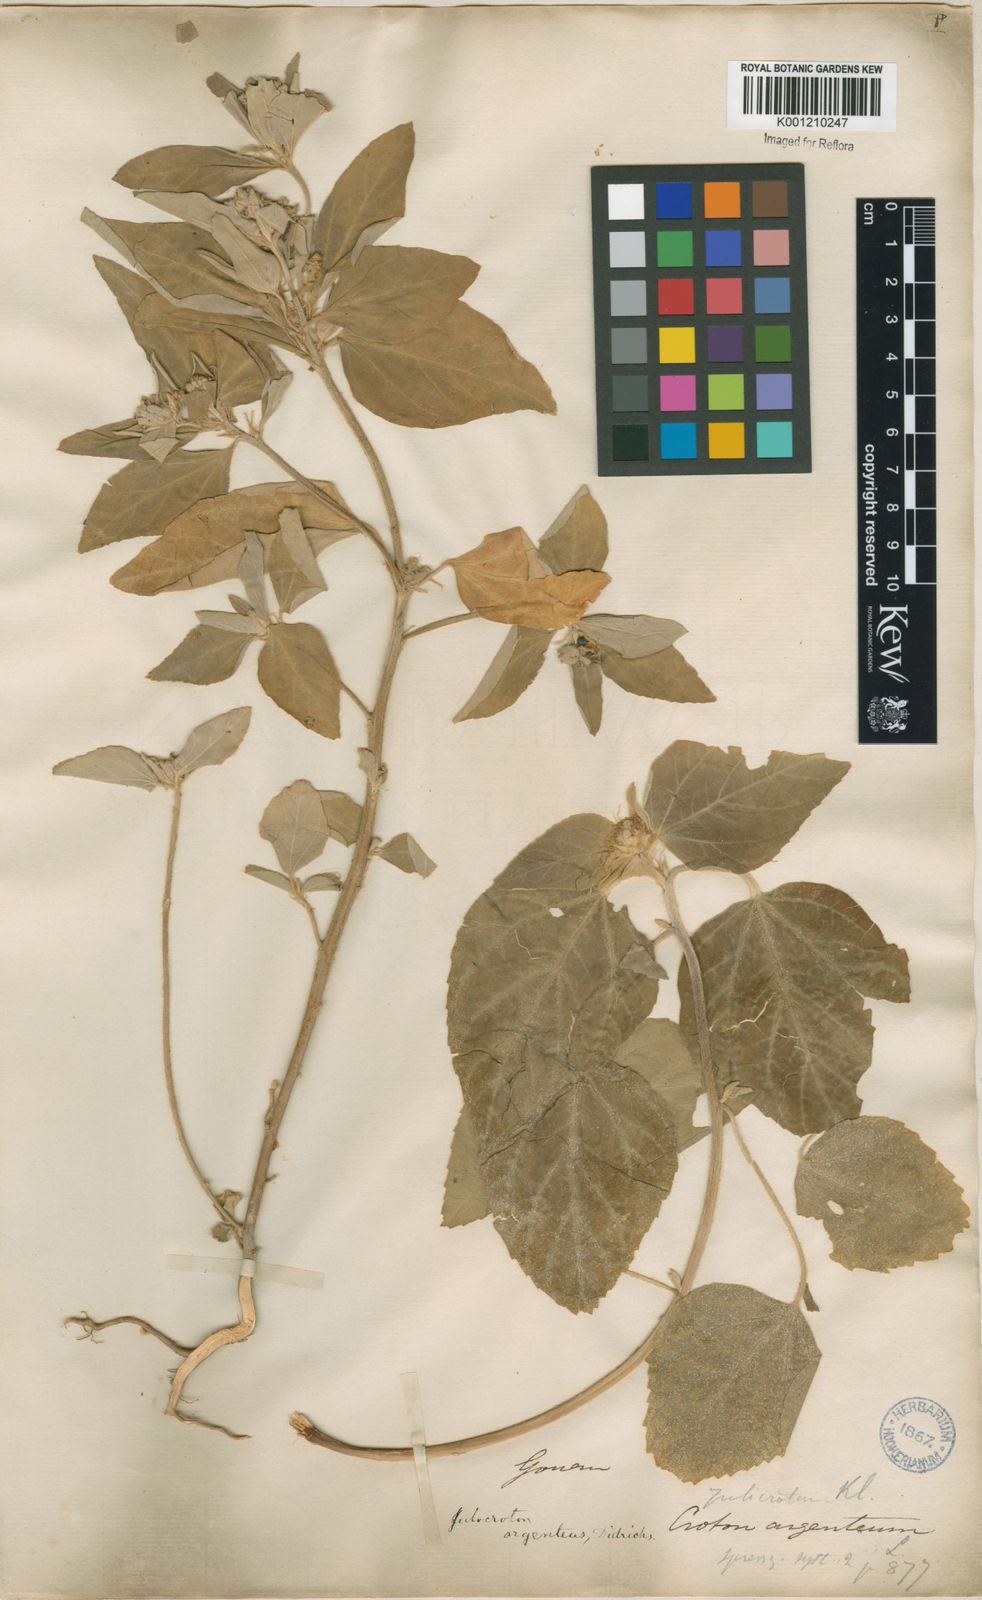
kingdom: Plantae
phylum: Tracheophyta
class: Magnoliopsida
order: Malpighiales
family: Euphorbiaceae
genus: Croton
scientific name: Croton
